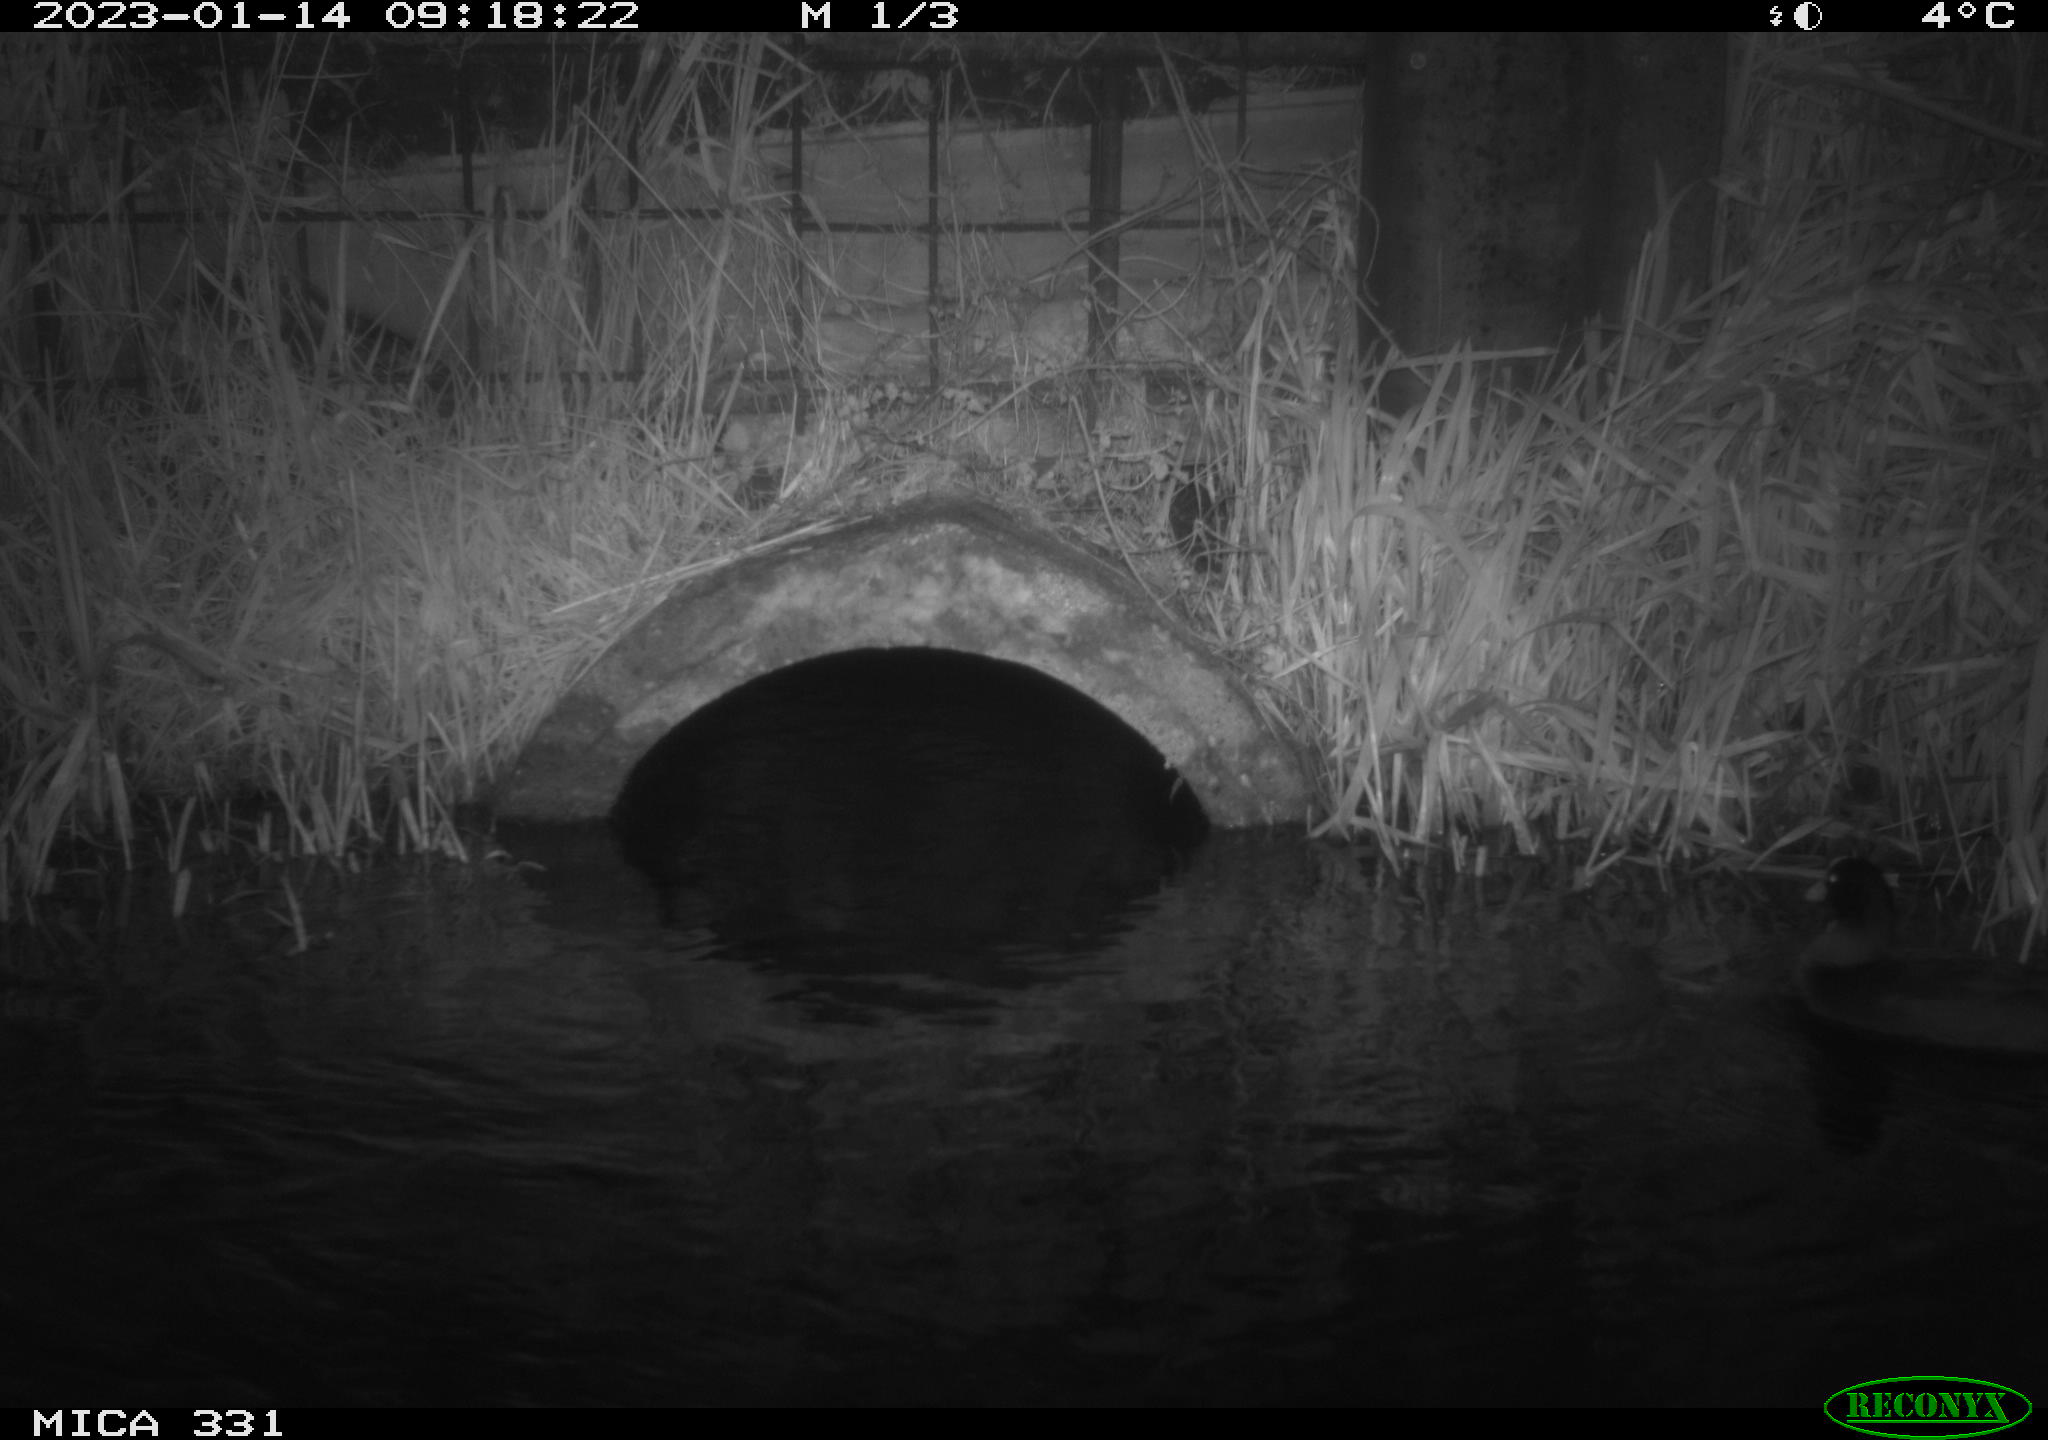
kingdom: Animalia
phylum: Chordata
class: Aves
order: Gruiformes
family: Rallidae
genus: Fulica
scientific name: Fulica atra
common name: Eurasian coot
